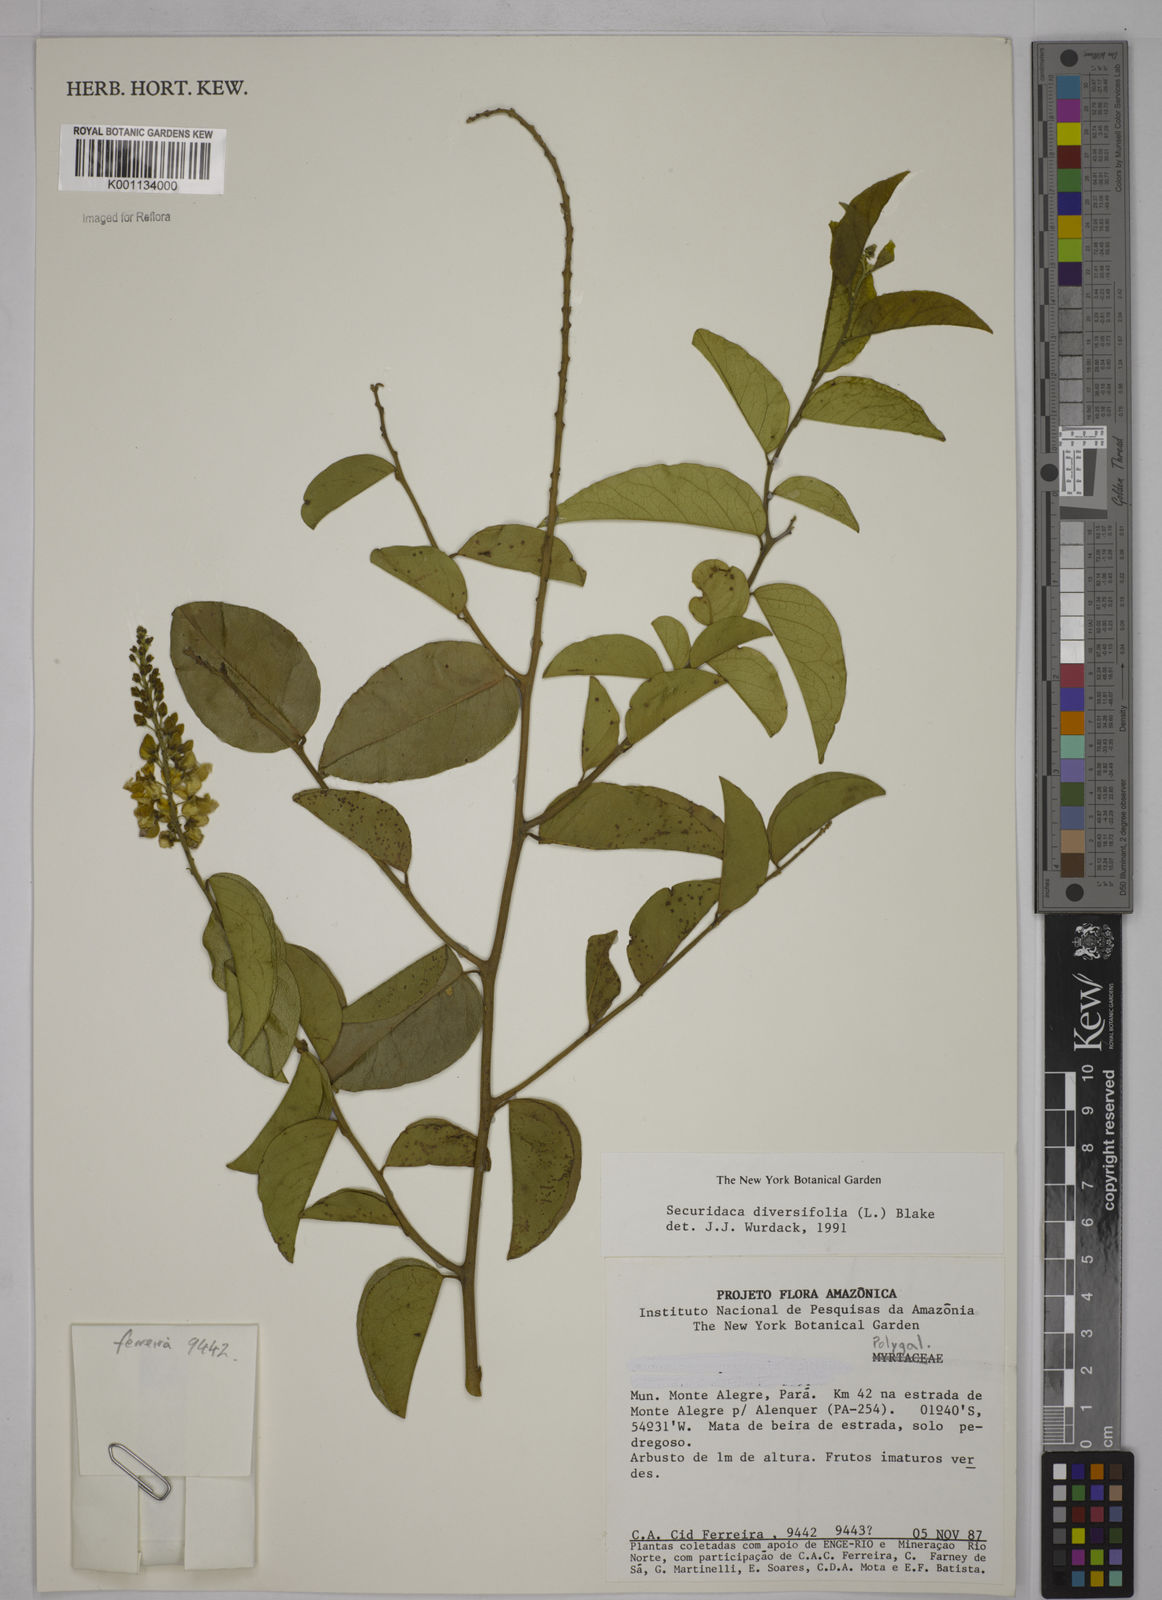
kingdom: Plantae
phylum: Tracheophyta
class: Magnoliopsida
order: Fabales
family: Polygalaceae
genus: Securidaca
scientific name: Securidaca diversifolia
